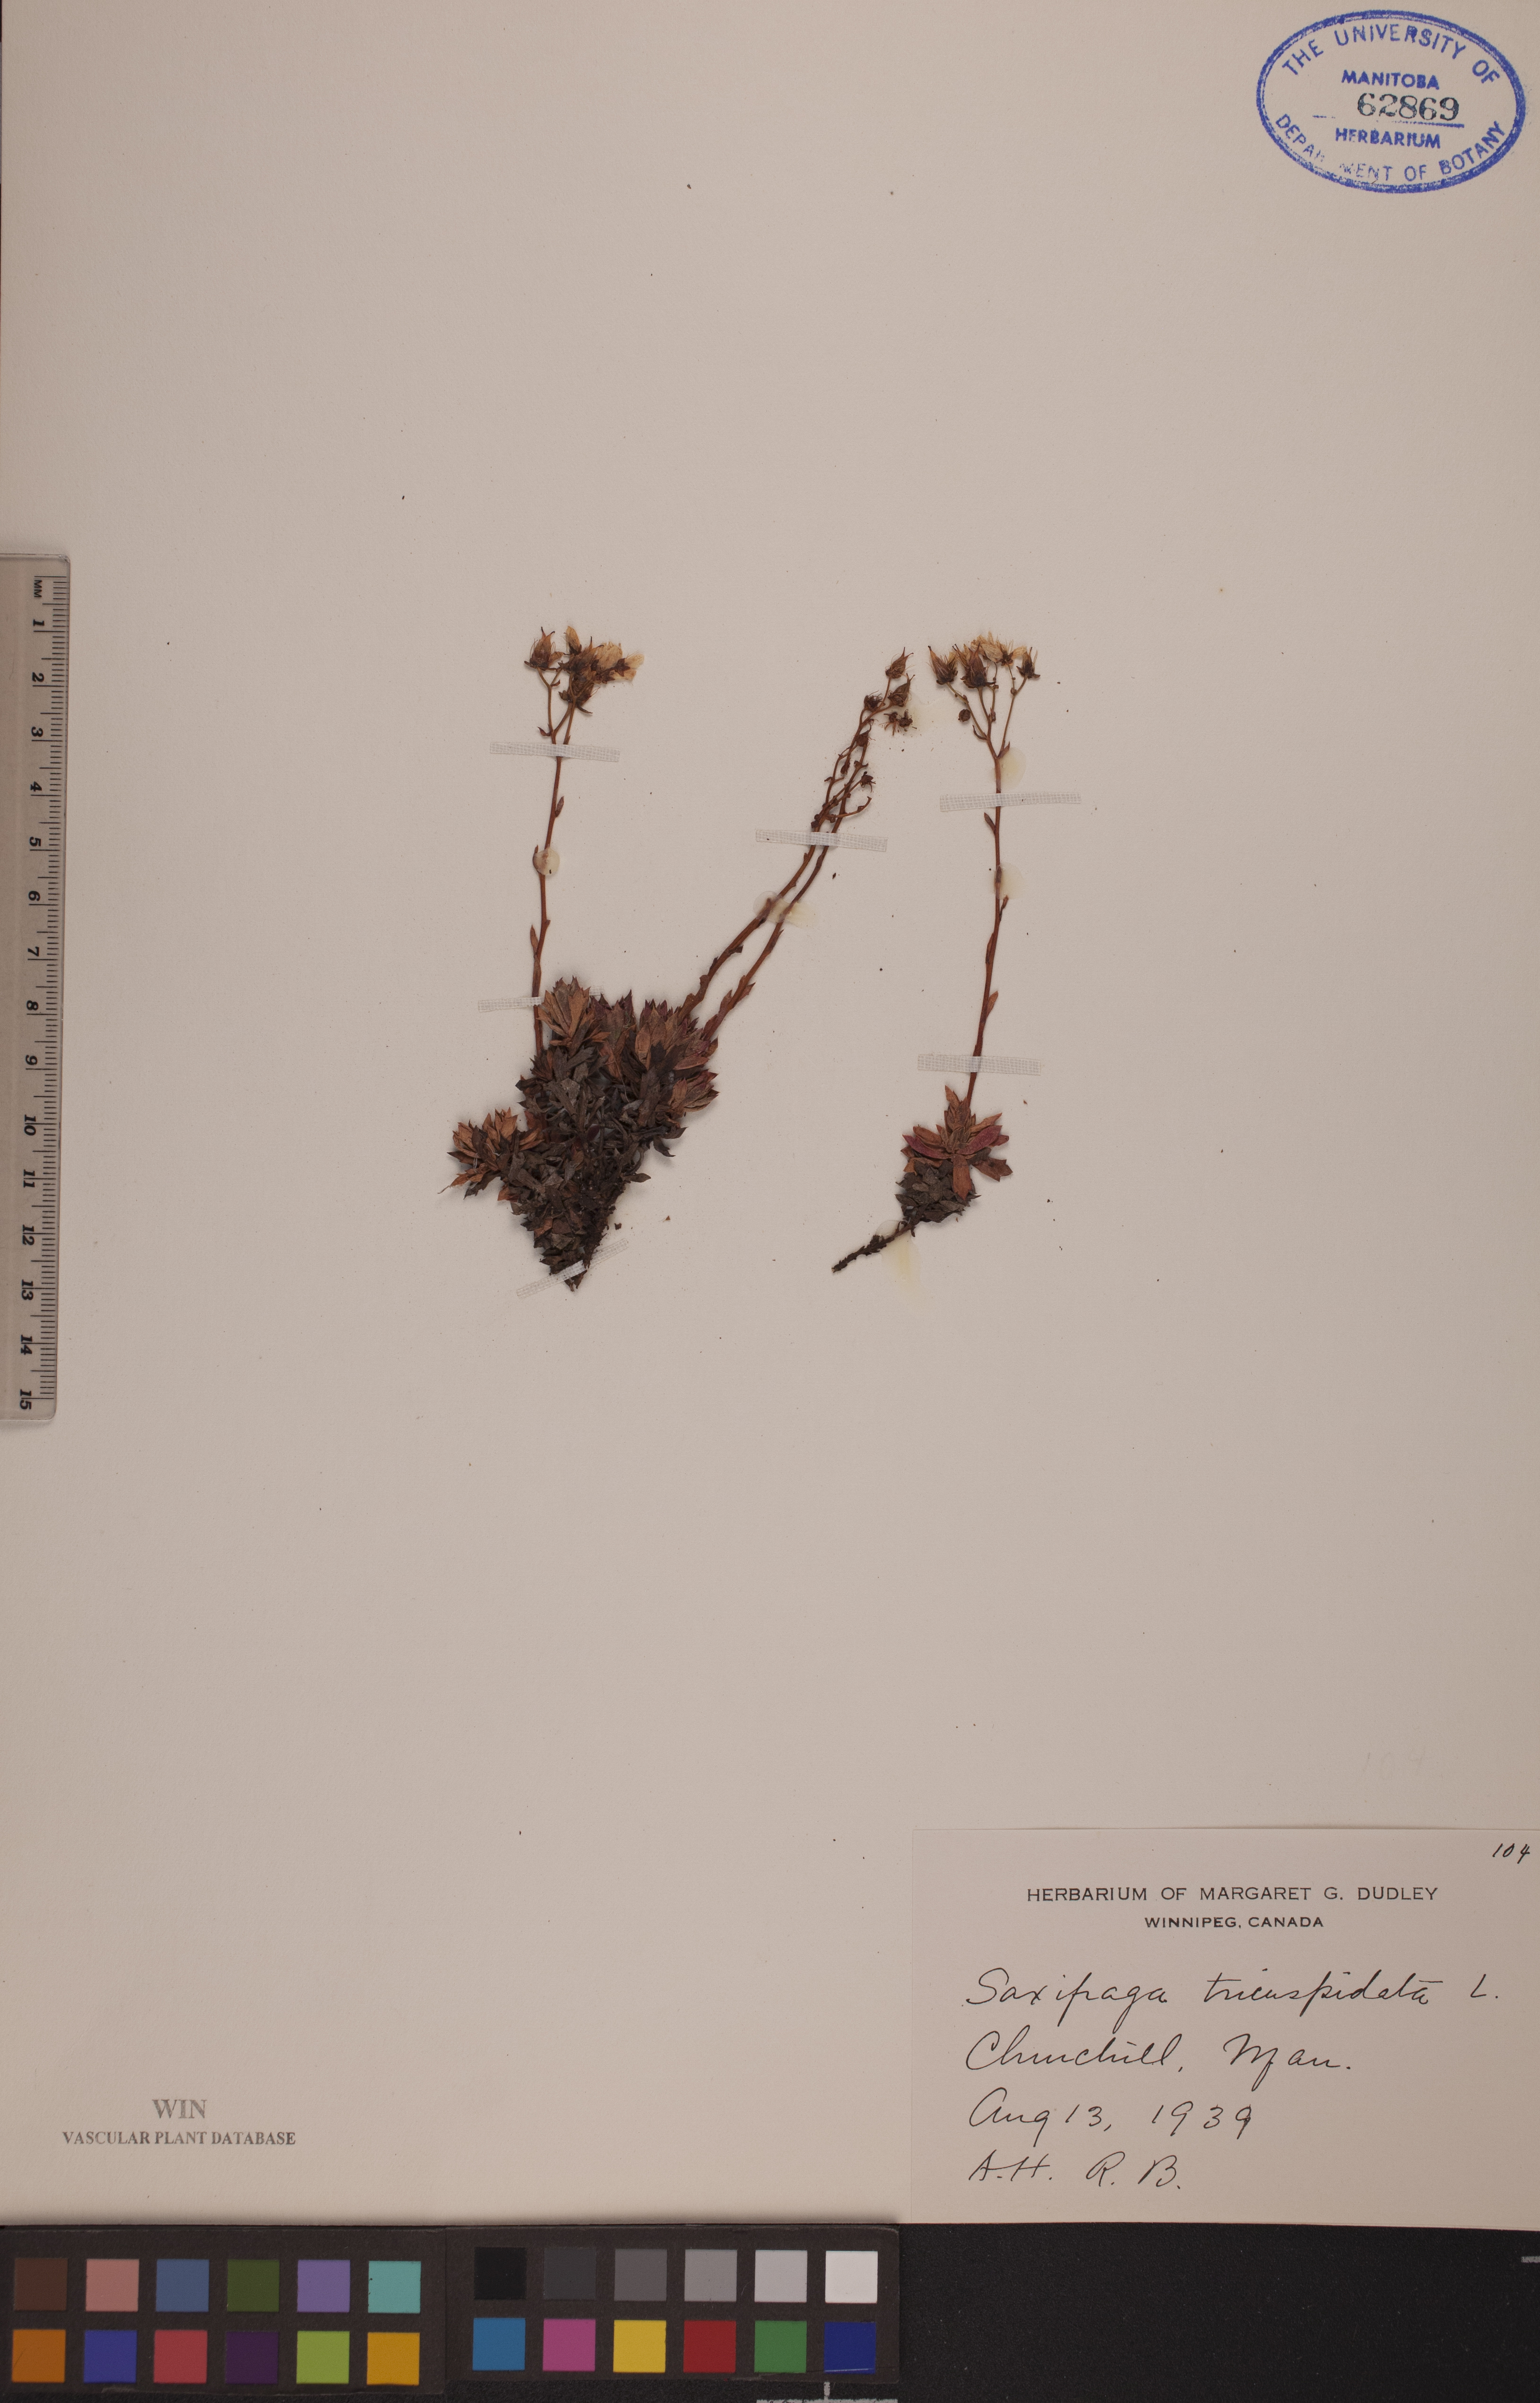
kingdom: Plantae
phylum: Tracheophyta
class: Magnoliopsida
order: Saxifragales
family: Saxifragaceae
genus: Saxifraga
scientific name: Saxifraga tricuspidata
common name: Prickly saxifrage
